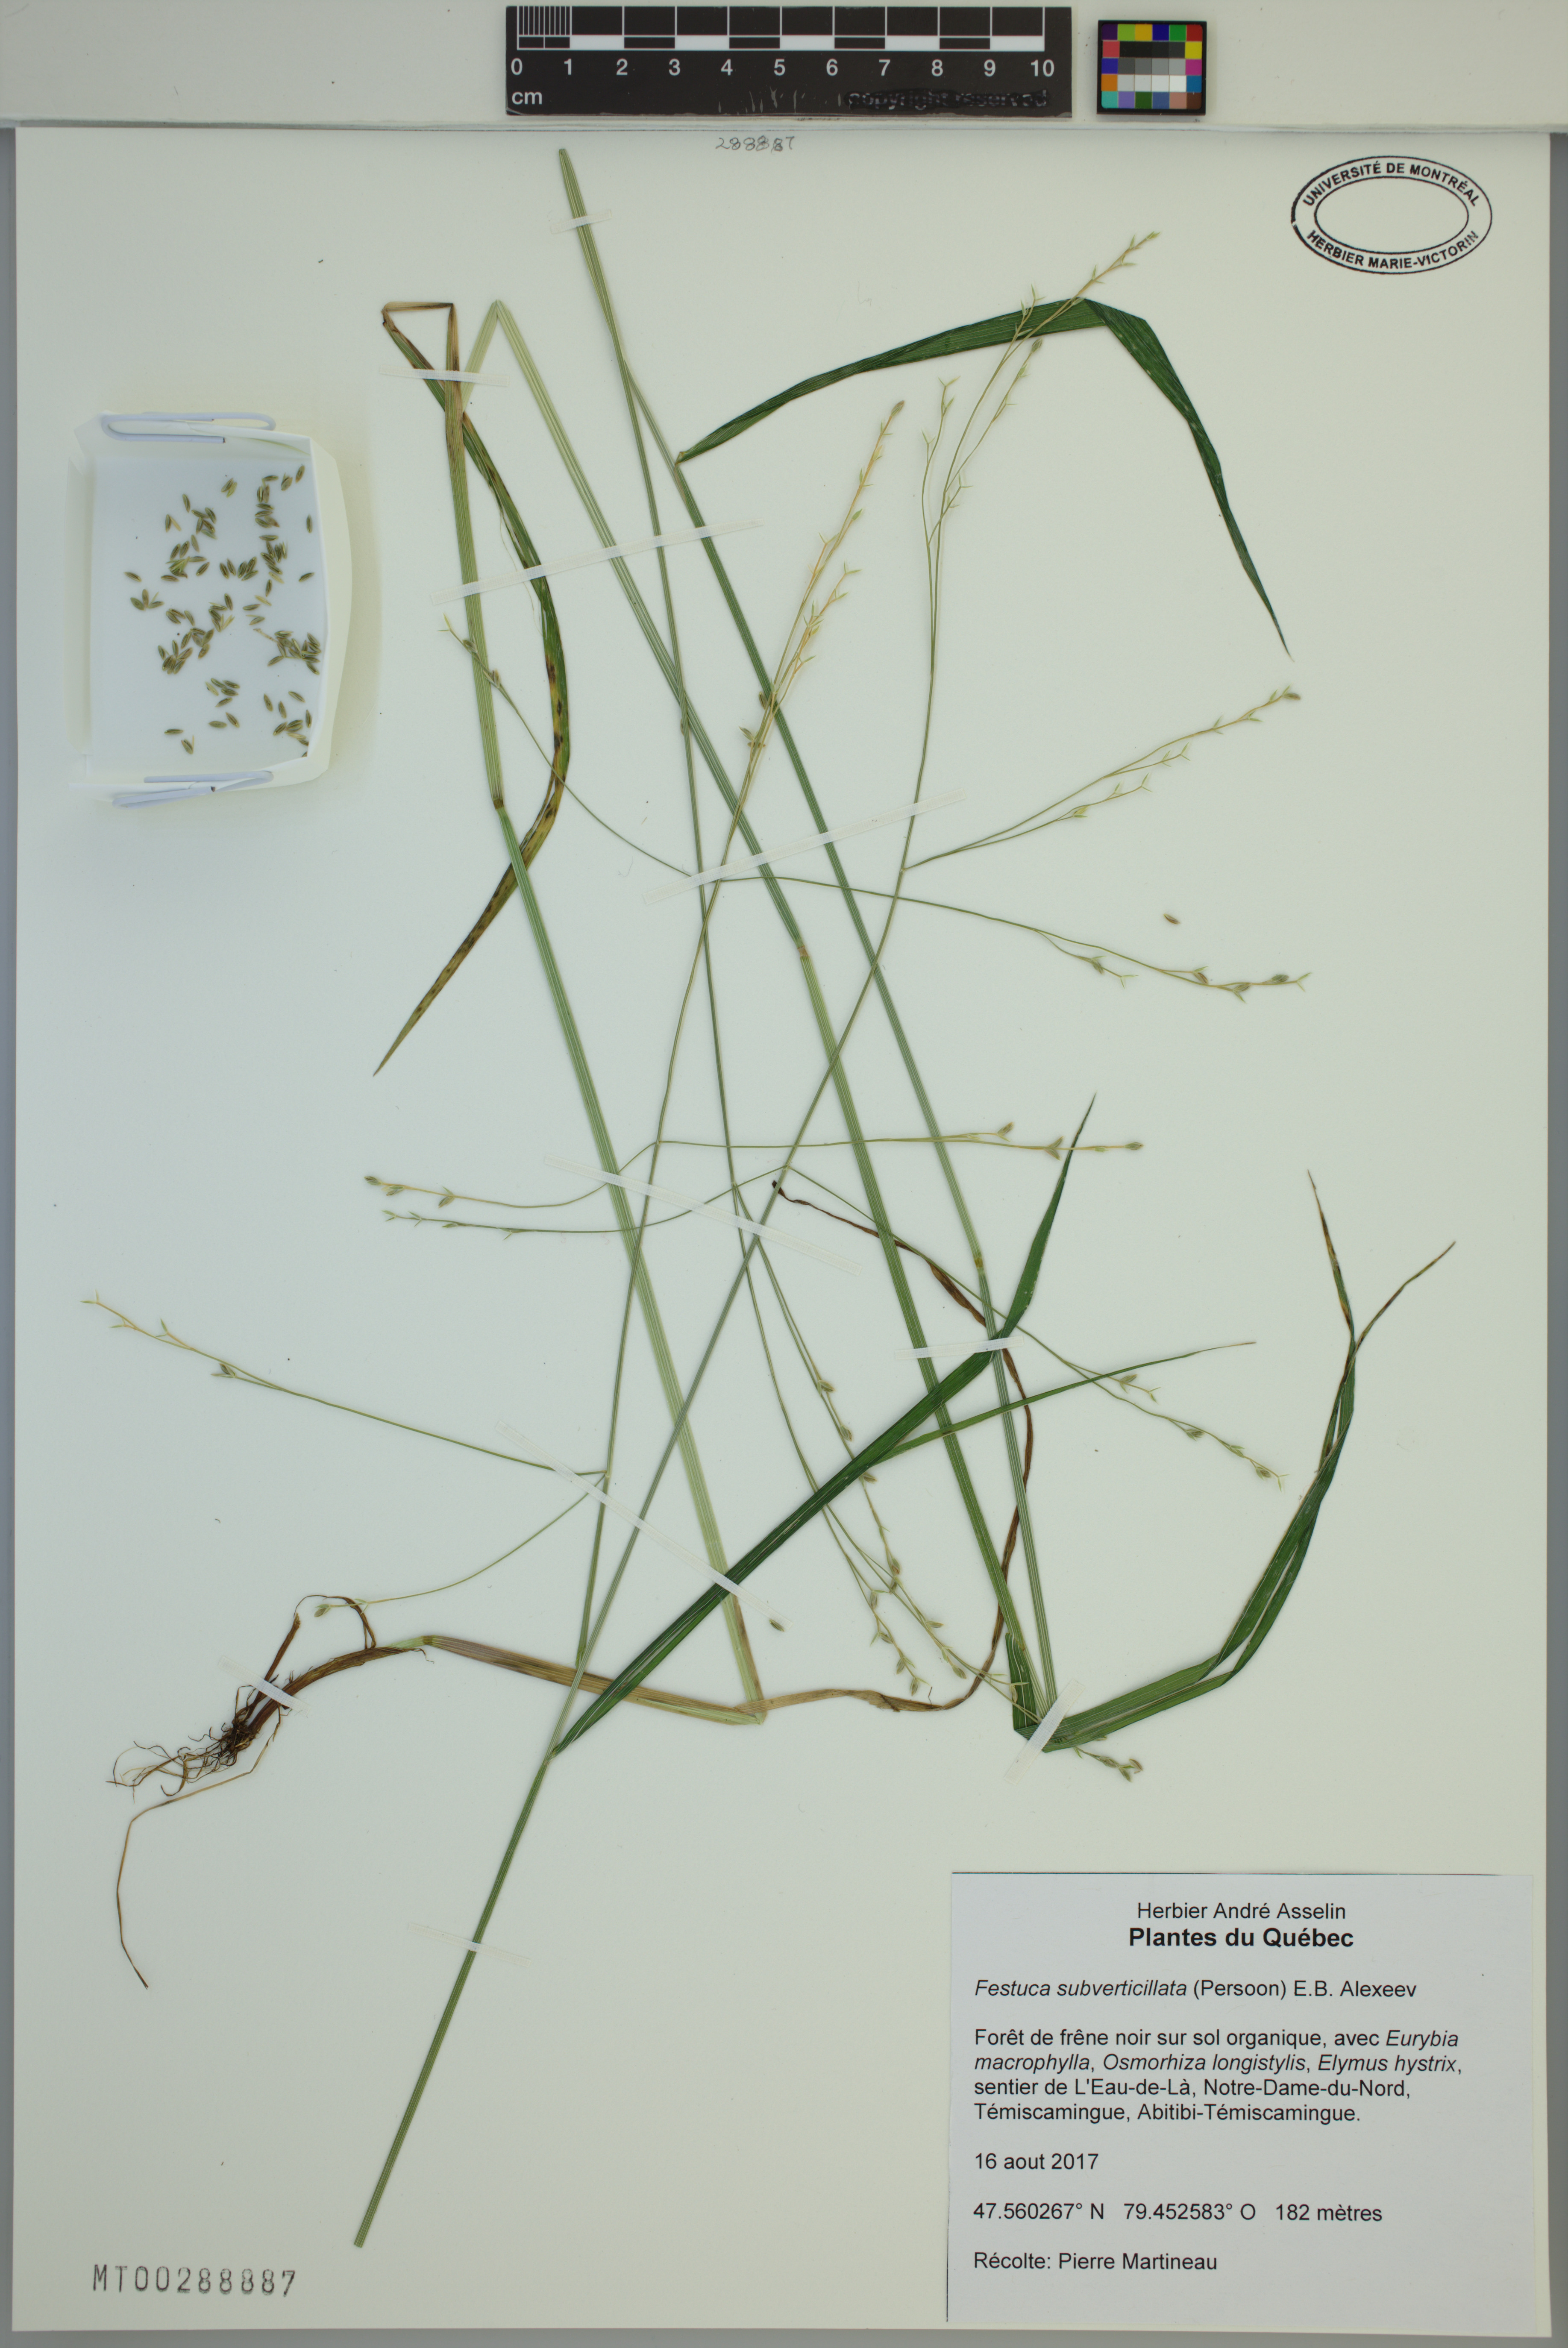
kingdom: Plantae
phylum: Tracheophyta
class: Liliopsida
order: Poales
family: Poaceae
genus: Festuca
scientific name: Festuca subverticillata
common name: Nodding fescue
